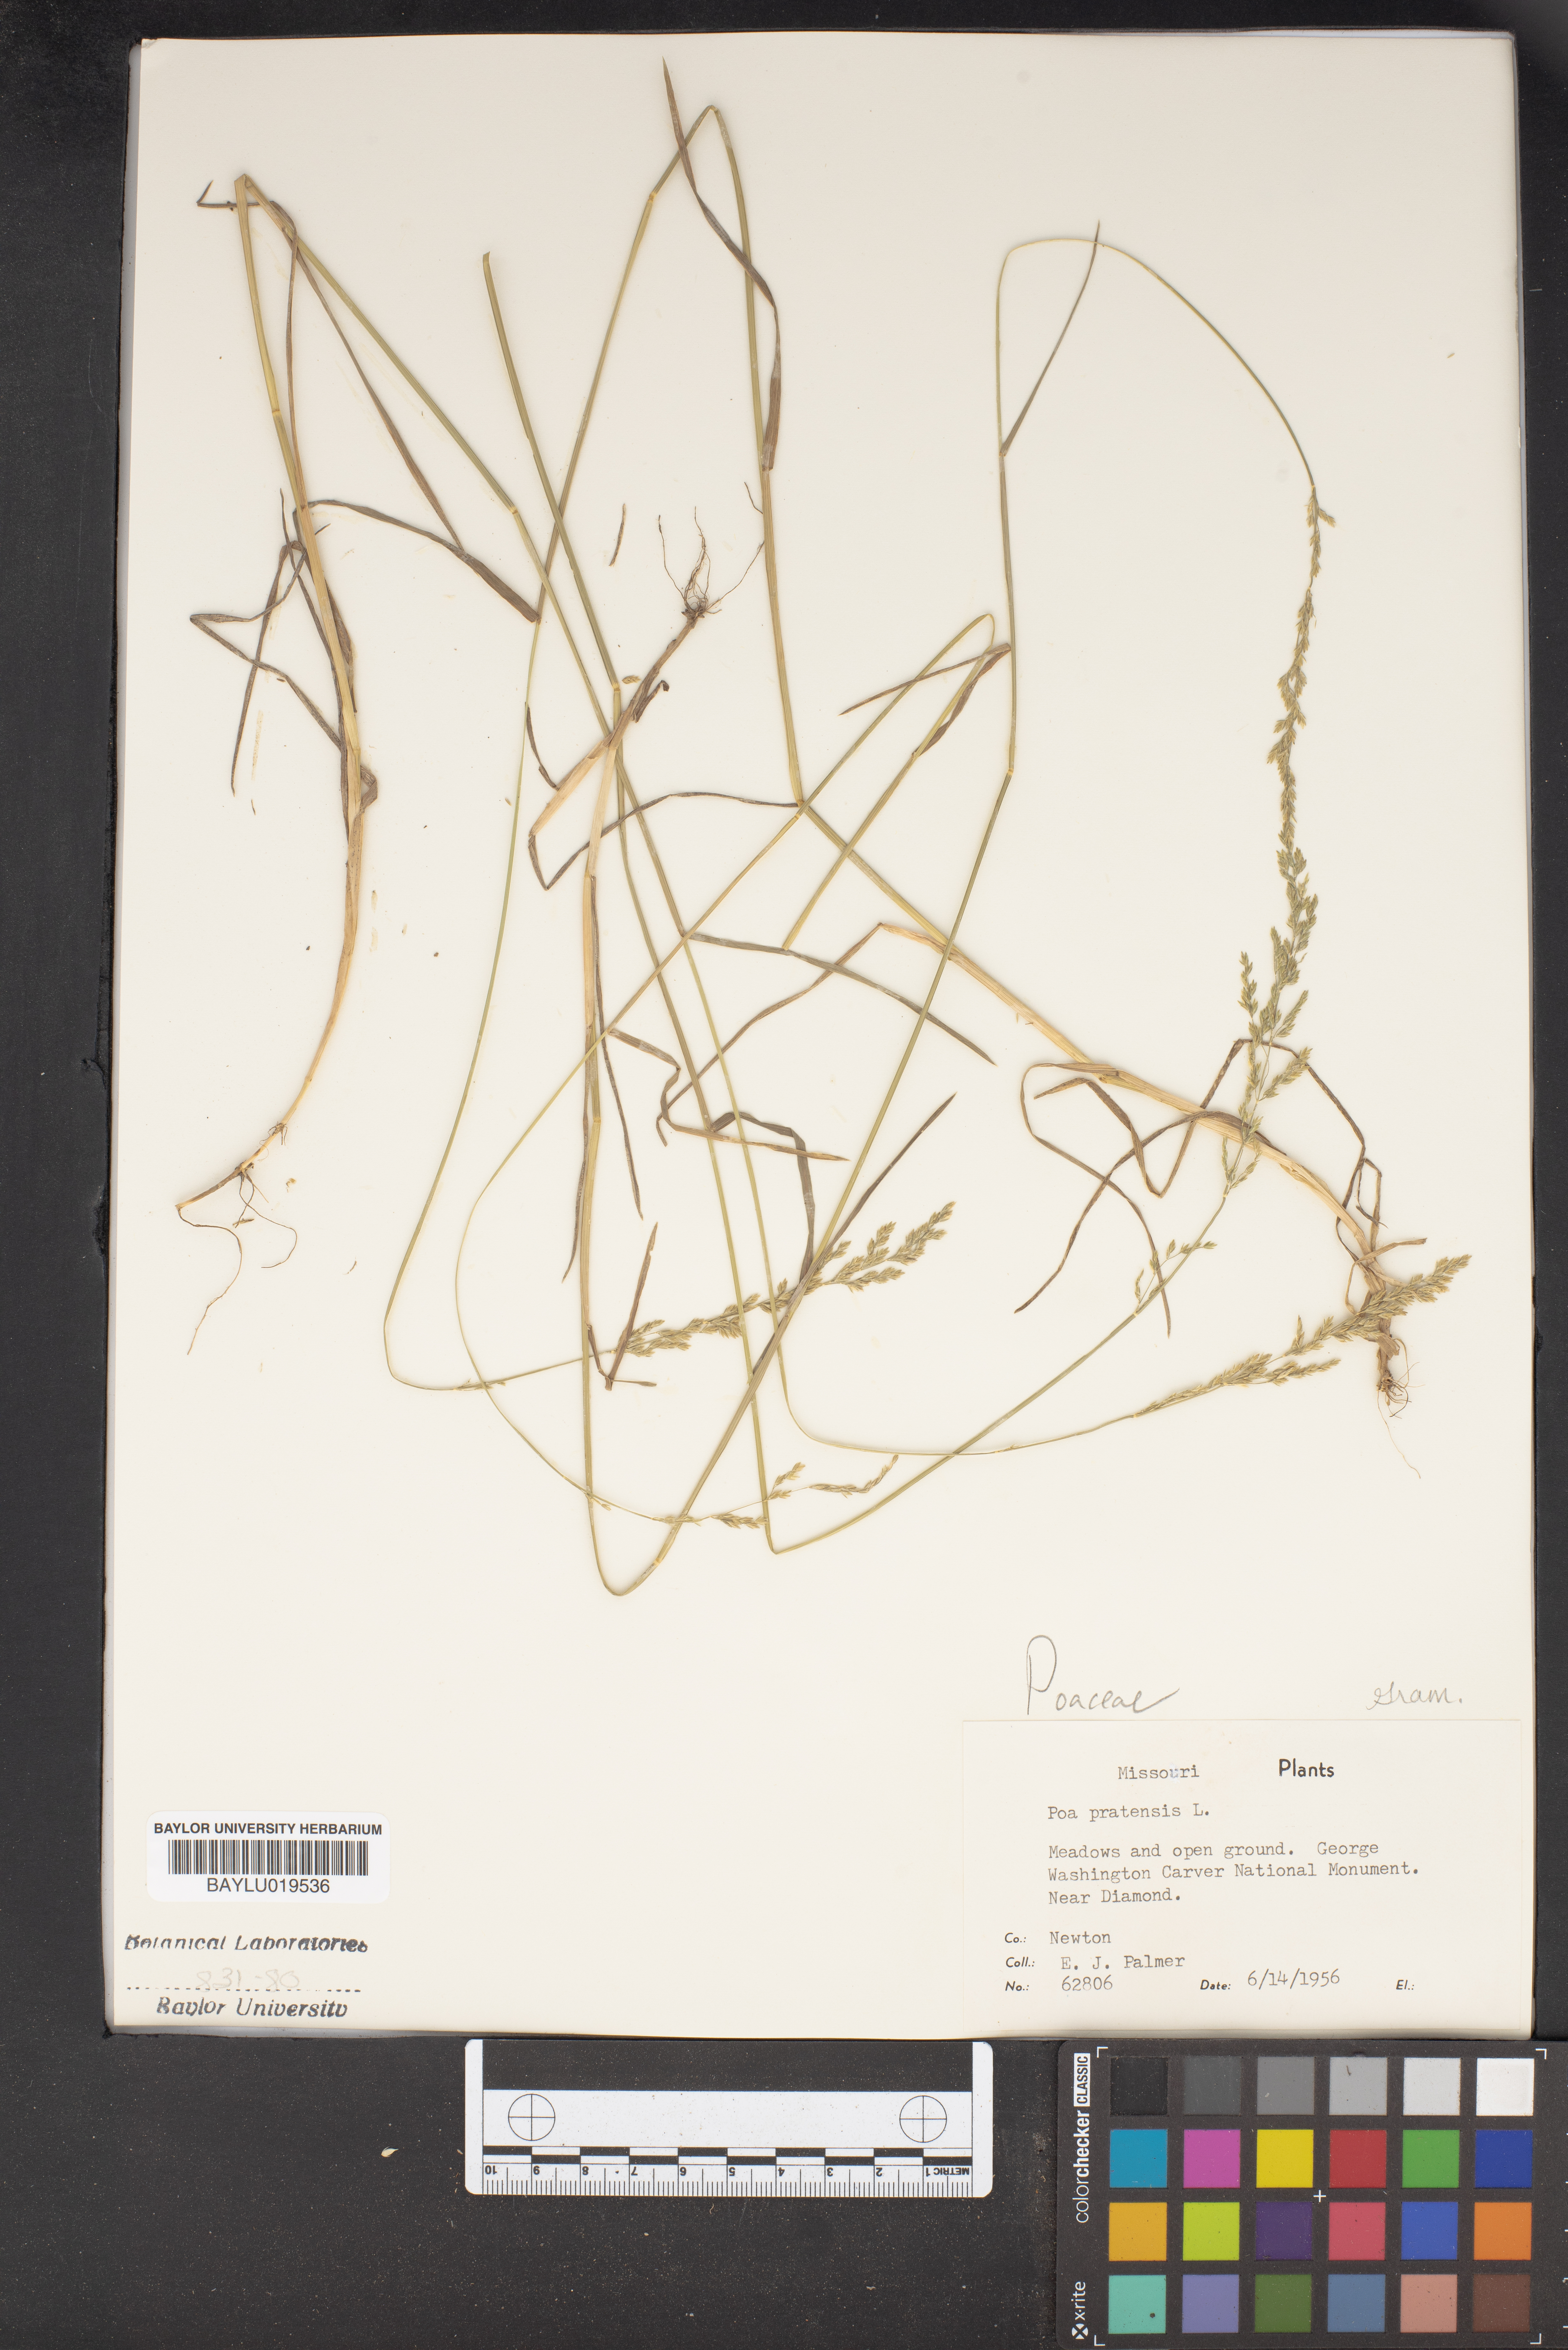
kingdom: Plantae
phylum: Tracheophyta
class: Liliopsida
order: Poales
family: Poaceae
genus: Poa
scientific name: Poa pratensis
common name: Kentucky bluegrass
